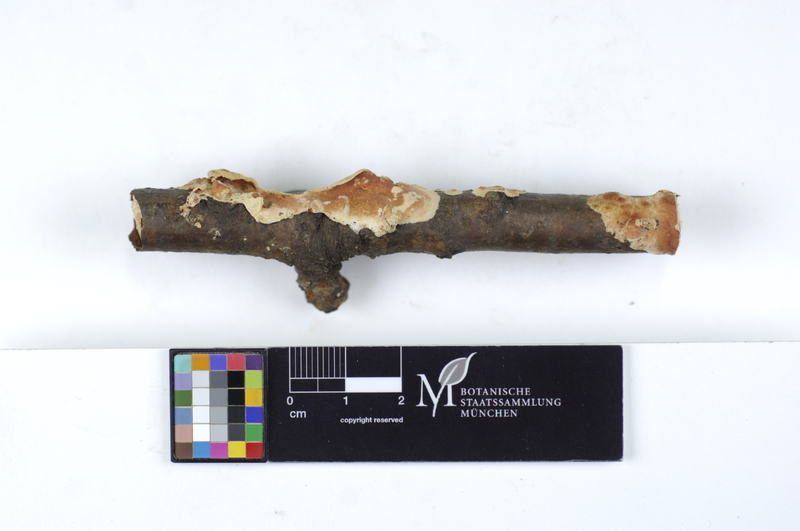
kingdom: Fungi
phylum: Basidiomycota
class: Agaricomycetes
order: Polyporales
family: Irpicaceae
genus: Byssomerulius
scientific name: Byssomerulius corium
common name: Netted crust
